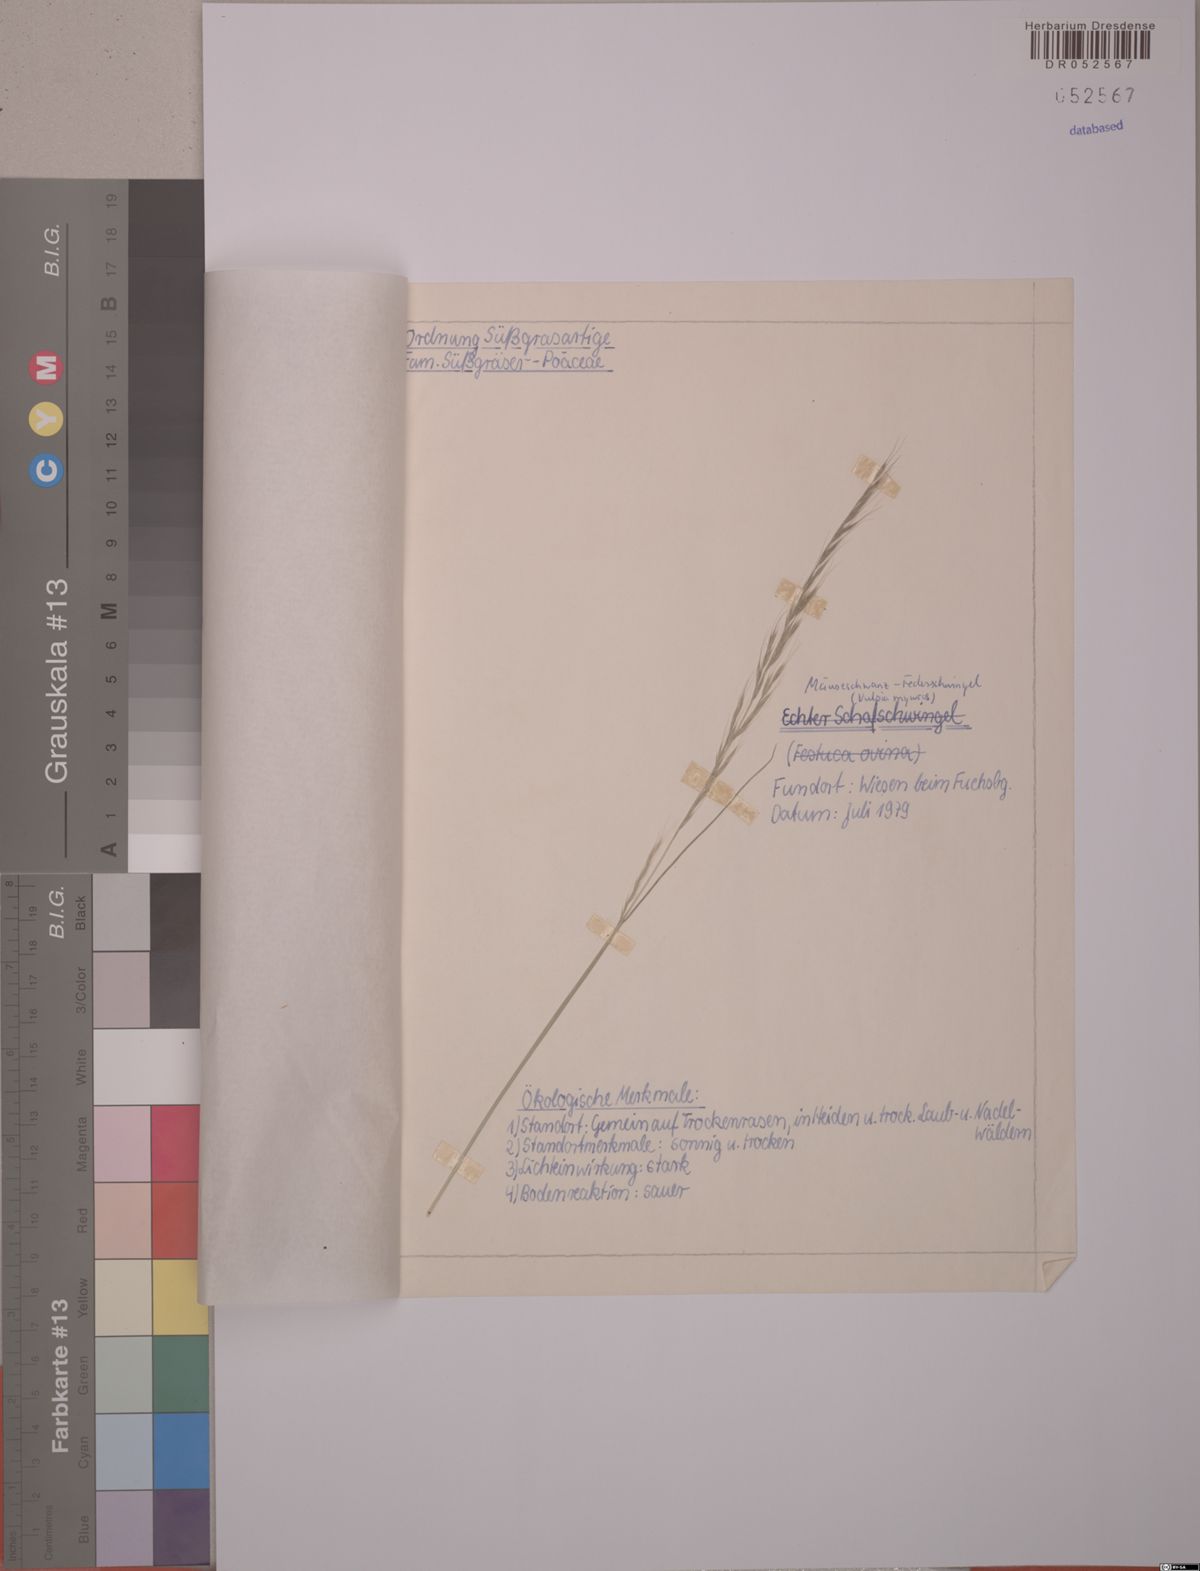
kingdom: Plantae
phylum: Tracheophyta
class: Liliopsida
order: Poales
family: Poaceae
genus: Festuca
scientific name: Festuca myuros
